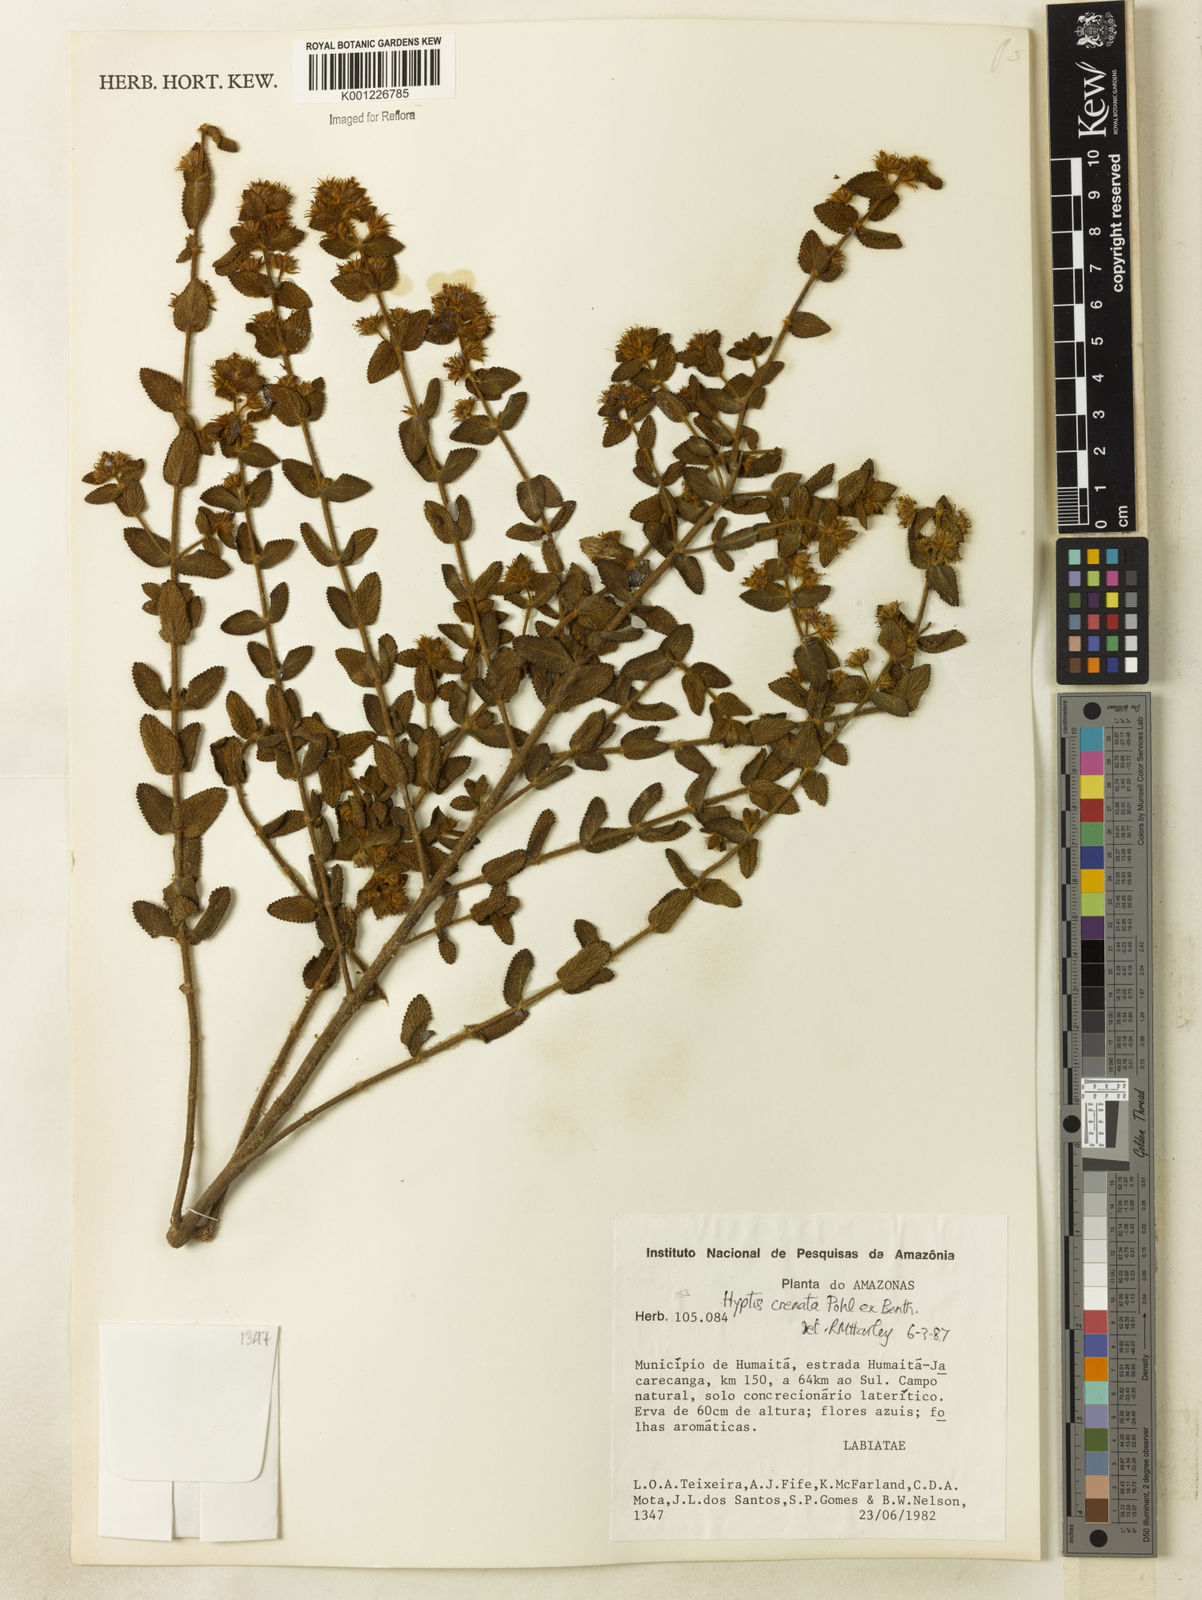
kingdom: Plantae
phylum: Tracheophyta
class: Magnoliopsida
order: Lamiales
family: Lamiaceae
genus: Hyptis
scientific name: Hyptis crenata
